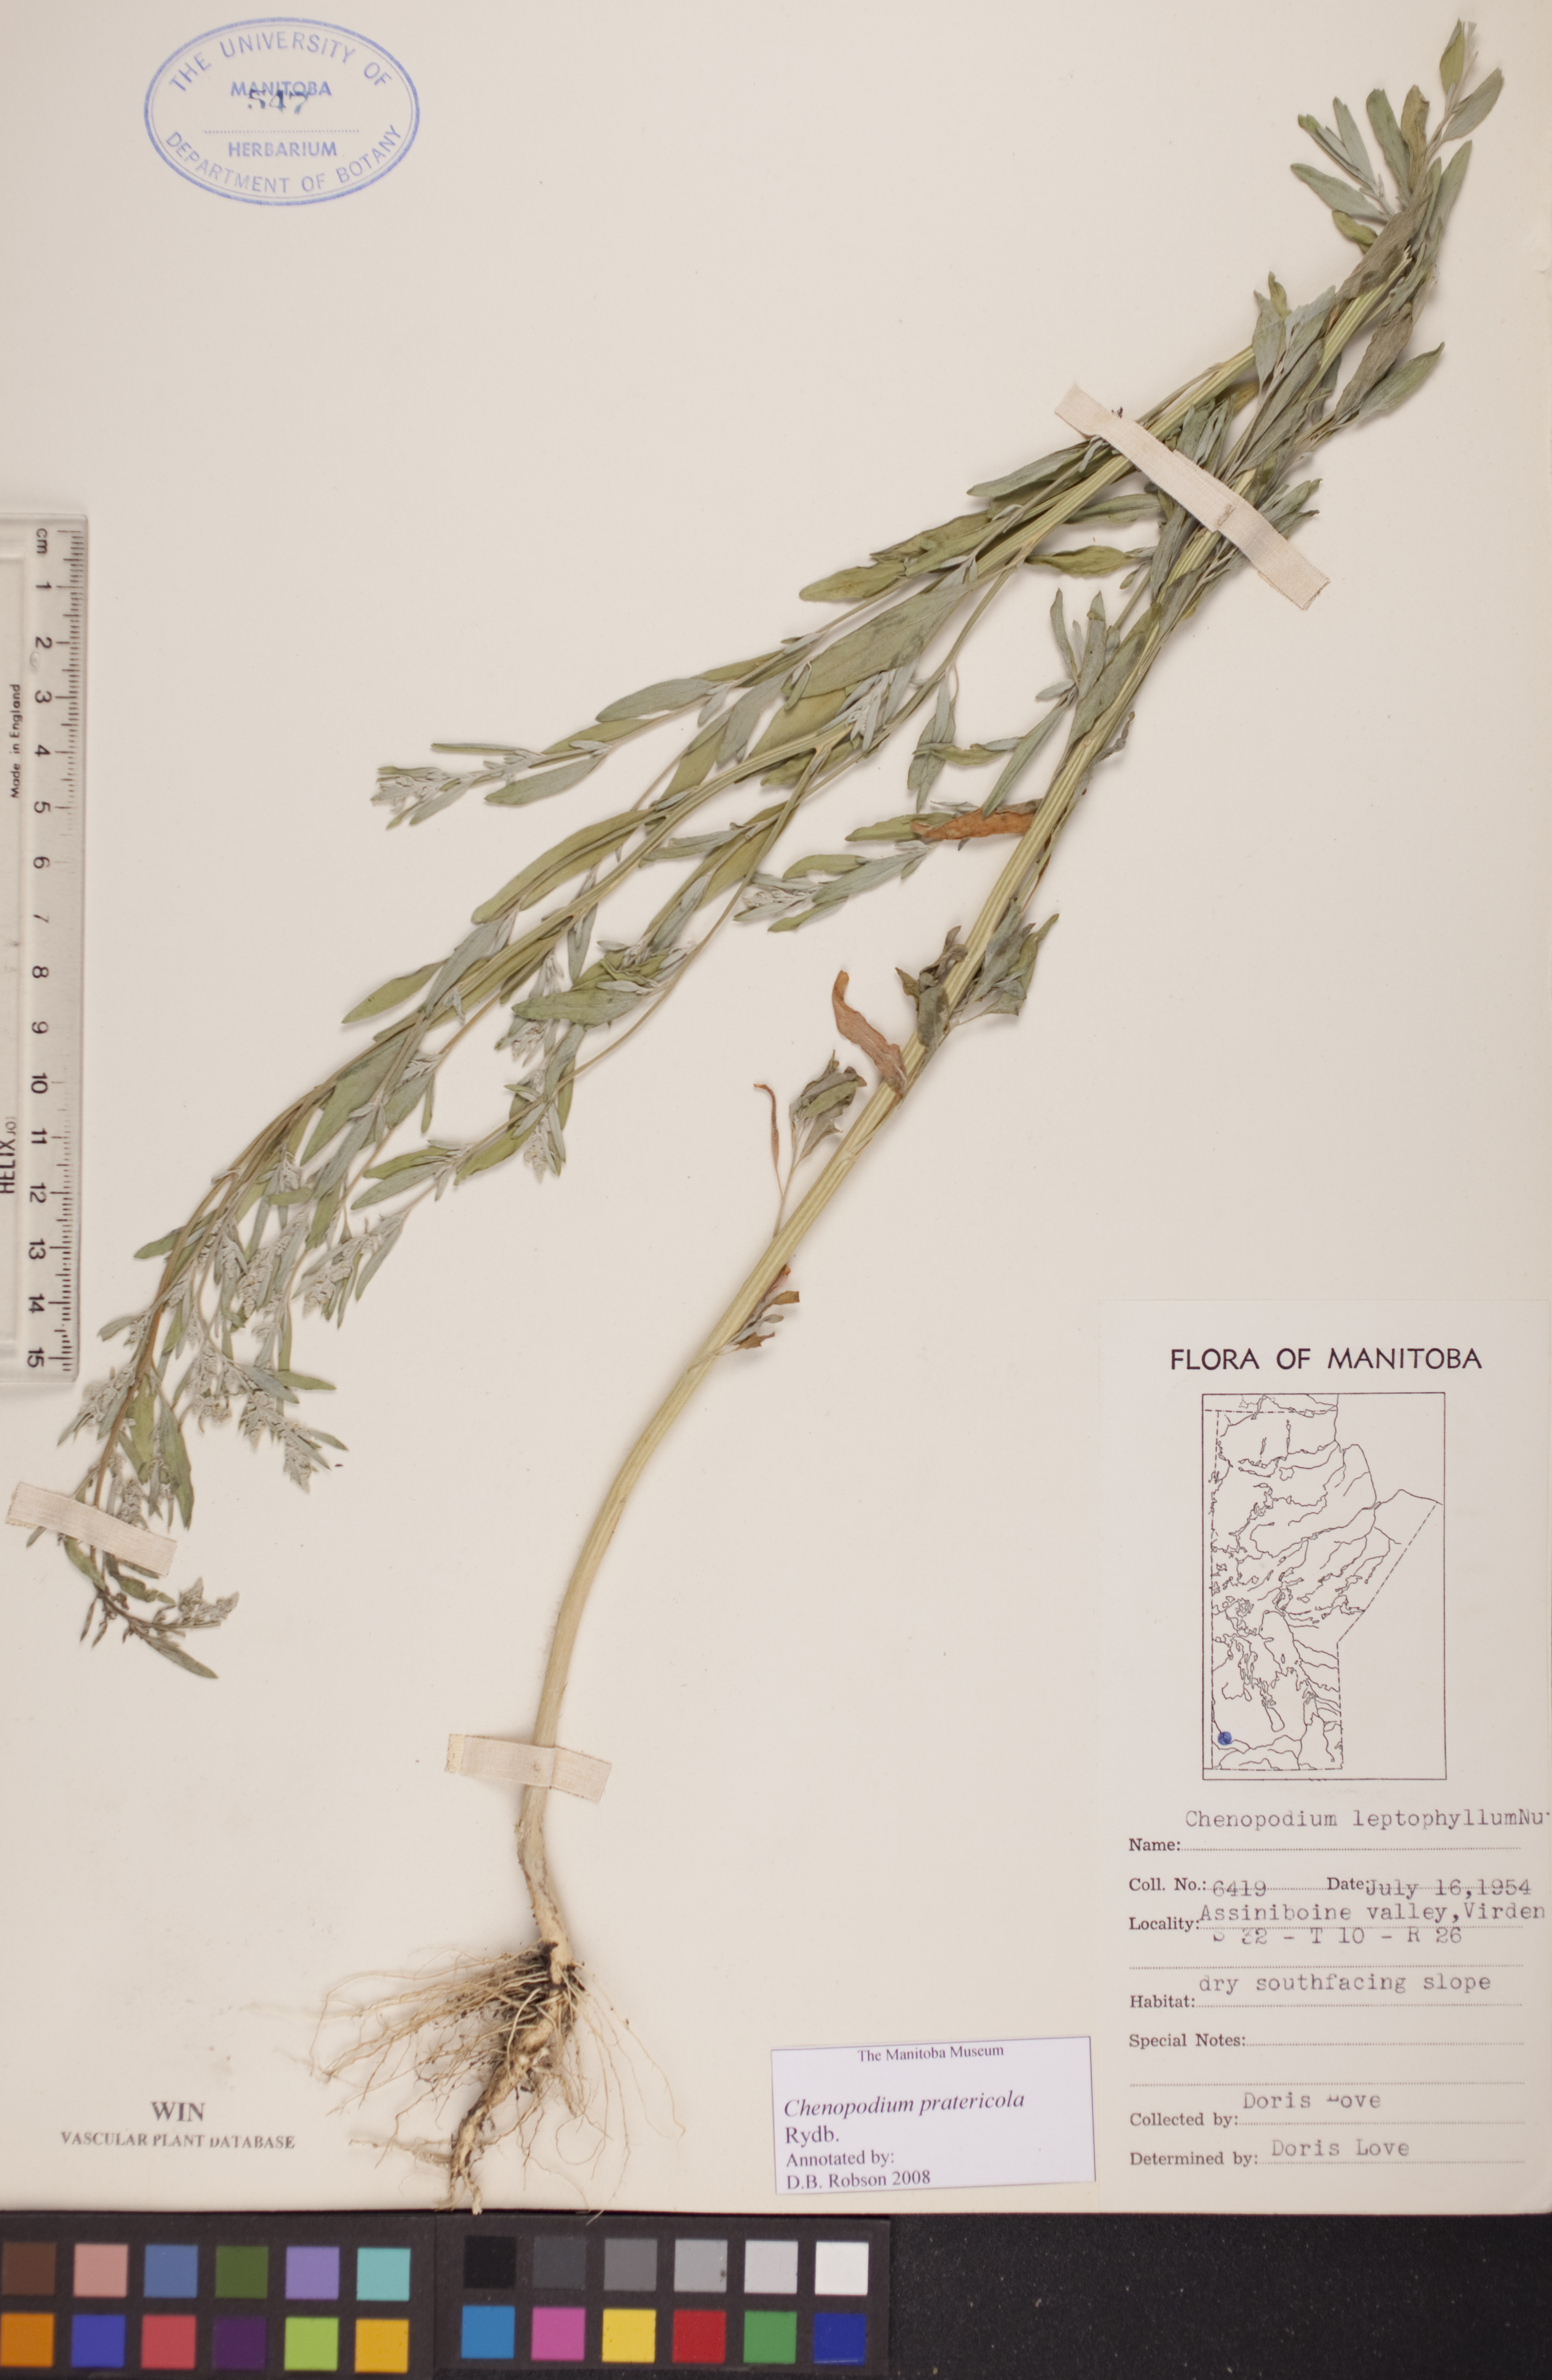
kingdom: Plantae
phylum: Tracheophyta
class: Magnoliopsida
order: Caryophyllales
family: Amaranthaceae
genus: Chenopodium
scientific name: Chenopodium pratericola
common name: Desert goosefoot
